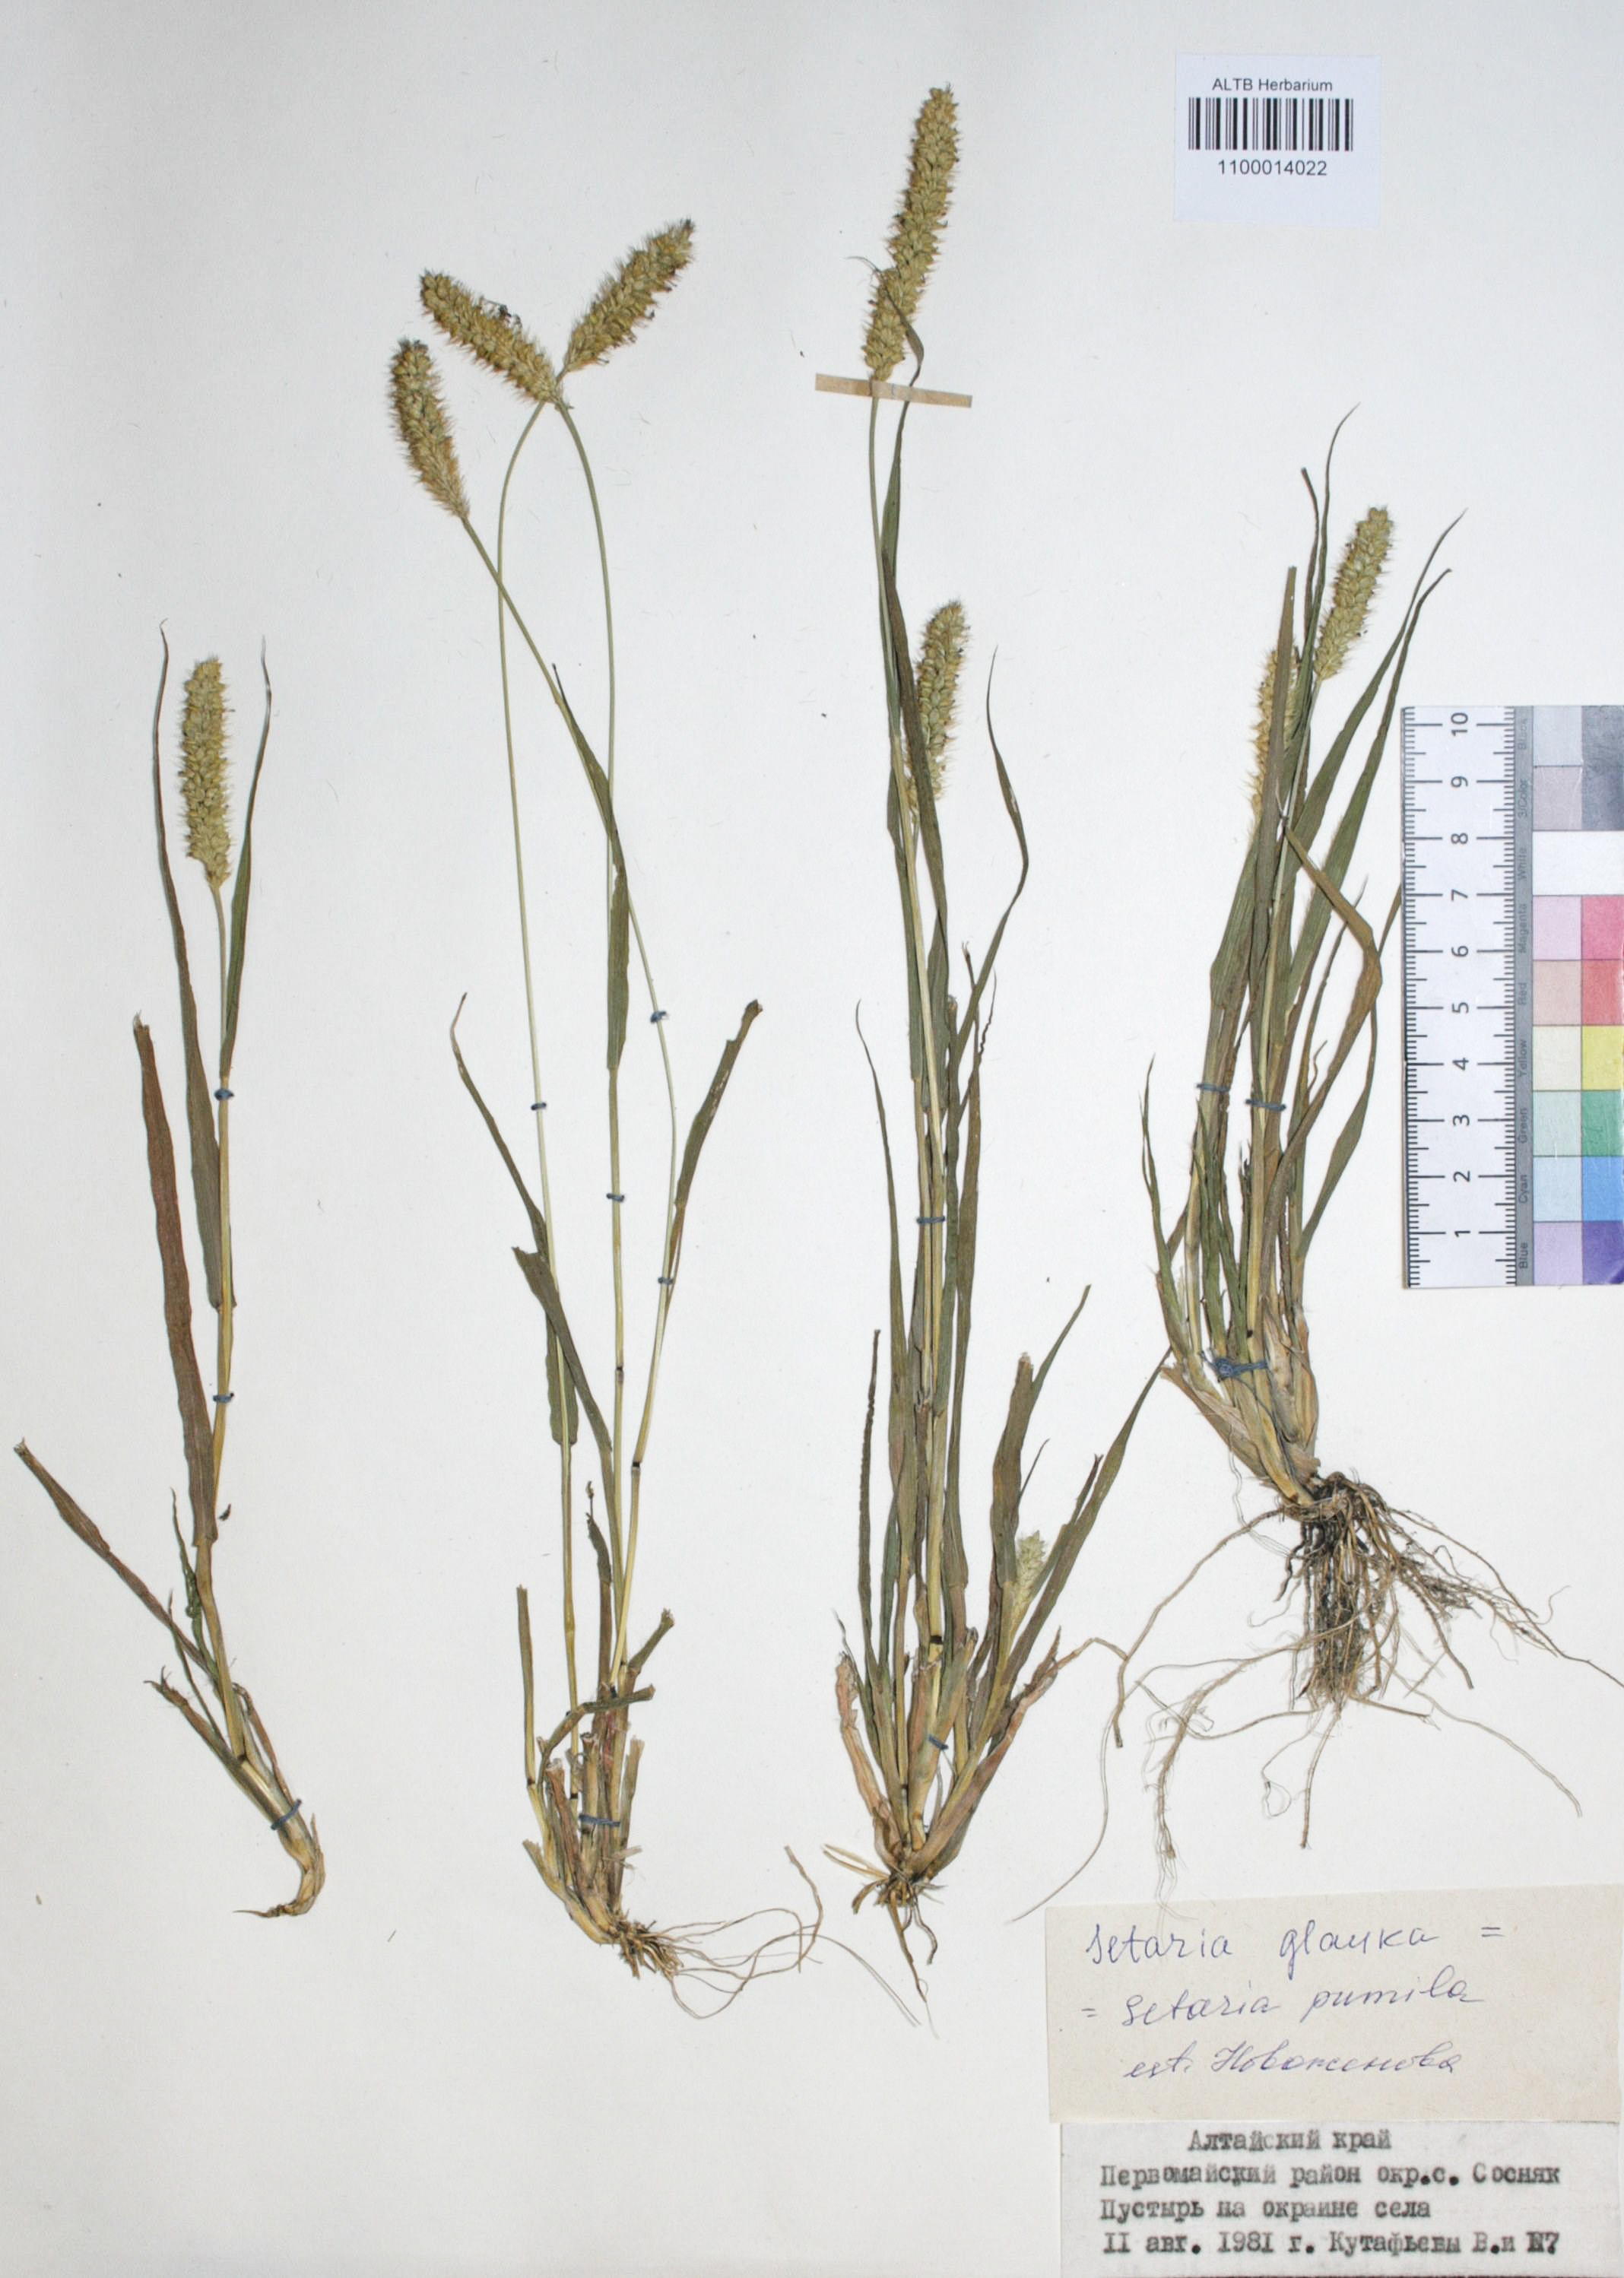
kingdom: Plantae
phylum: Tracheophyta
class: Liliopsida
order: Poales
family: Poaceae
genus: Setaria
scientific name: Setaria pumila
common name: Yellow bristle-grass
